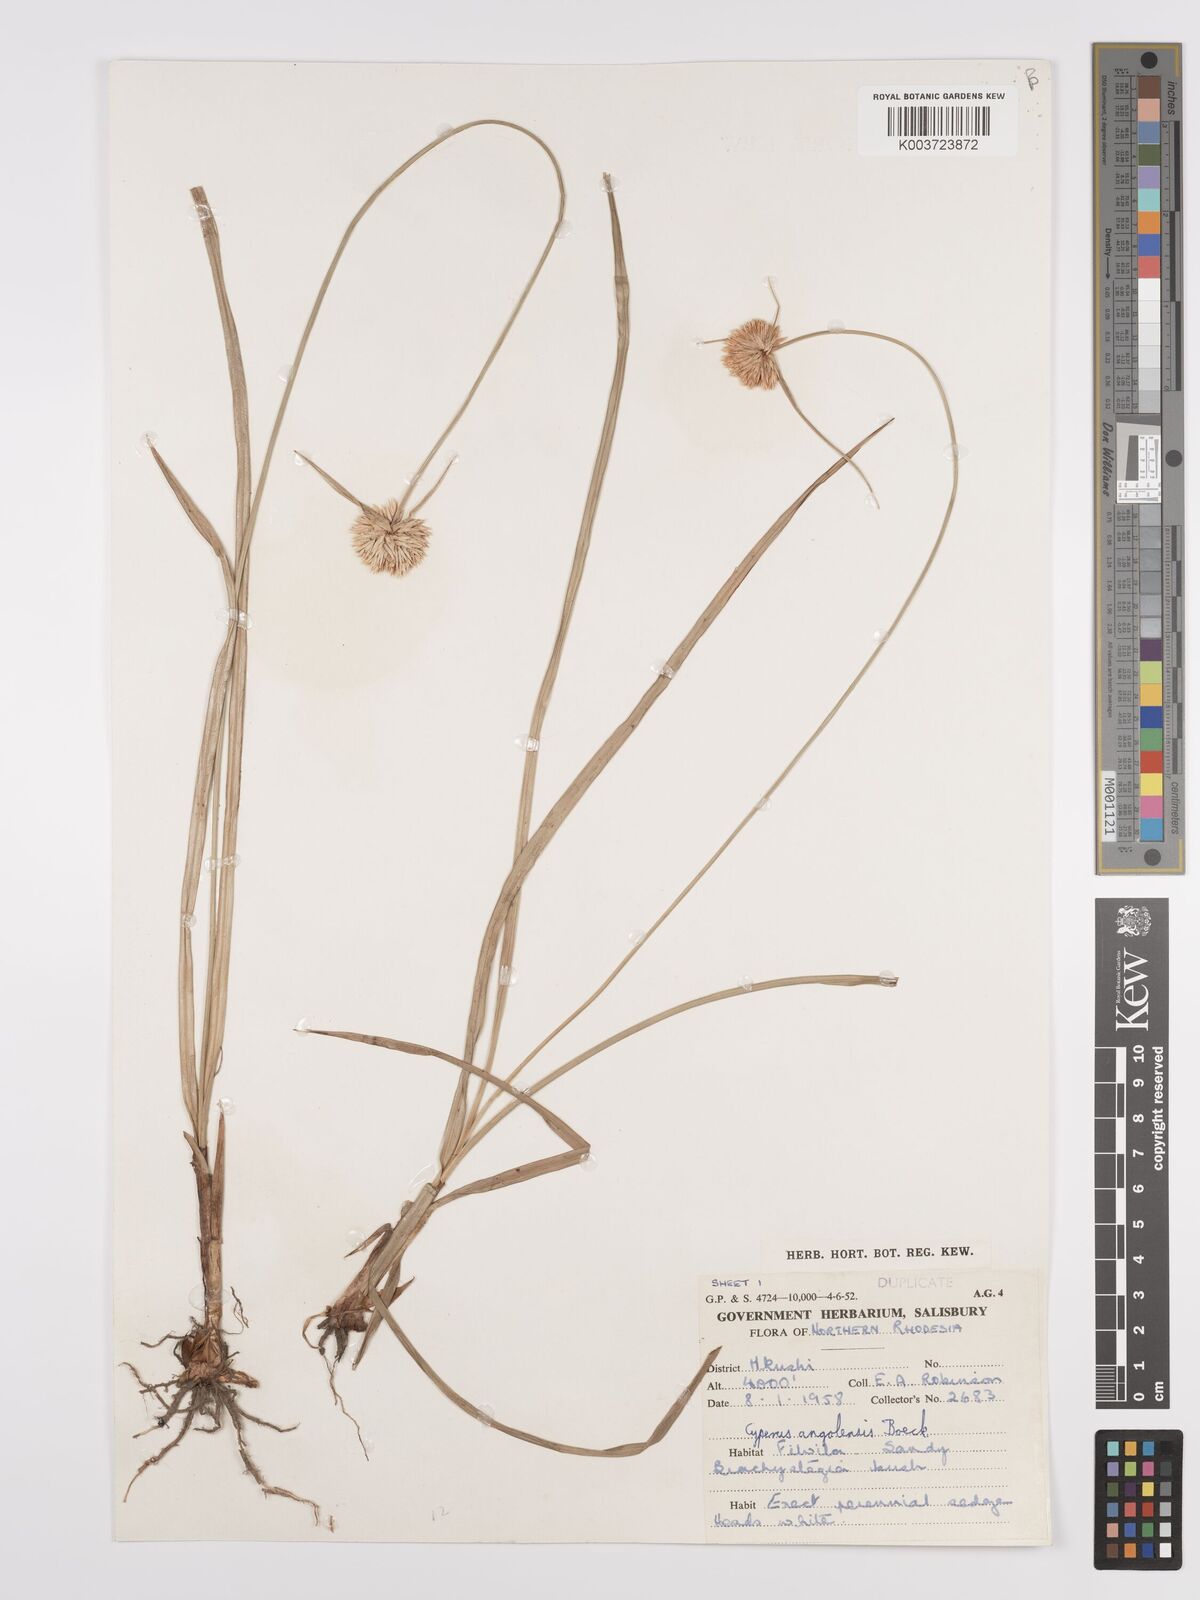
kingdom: Plantae
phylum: Tracheophyta
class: Liliopsida
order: Poales
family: Cyperaceae
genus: Cyperus
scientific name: Cyperus angolensis
